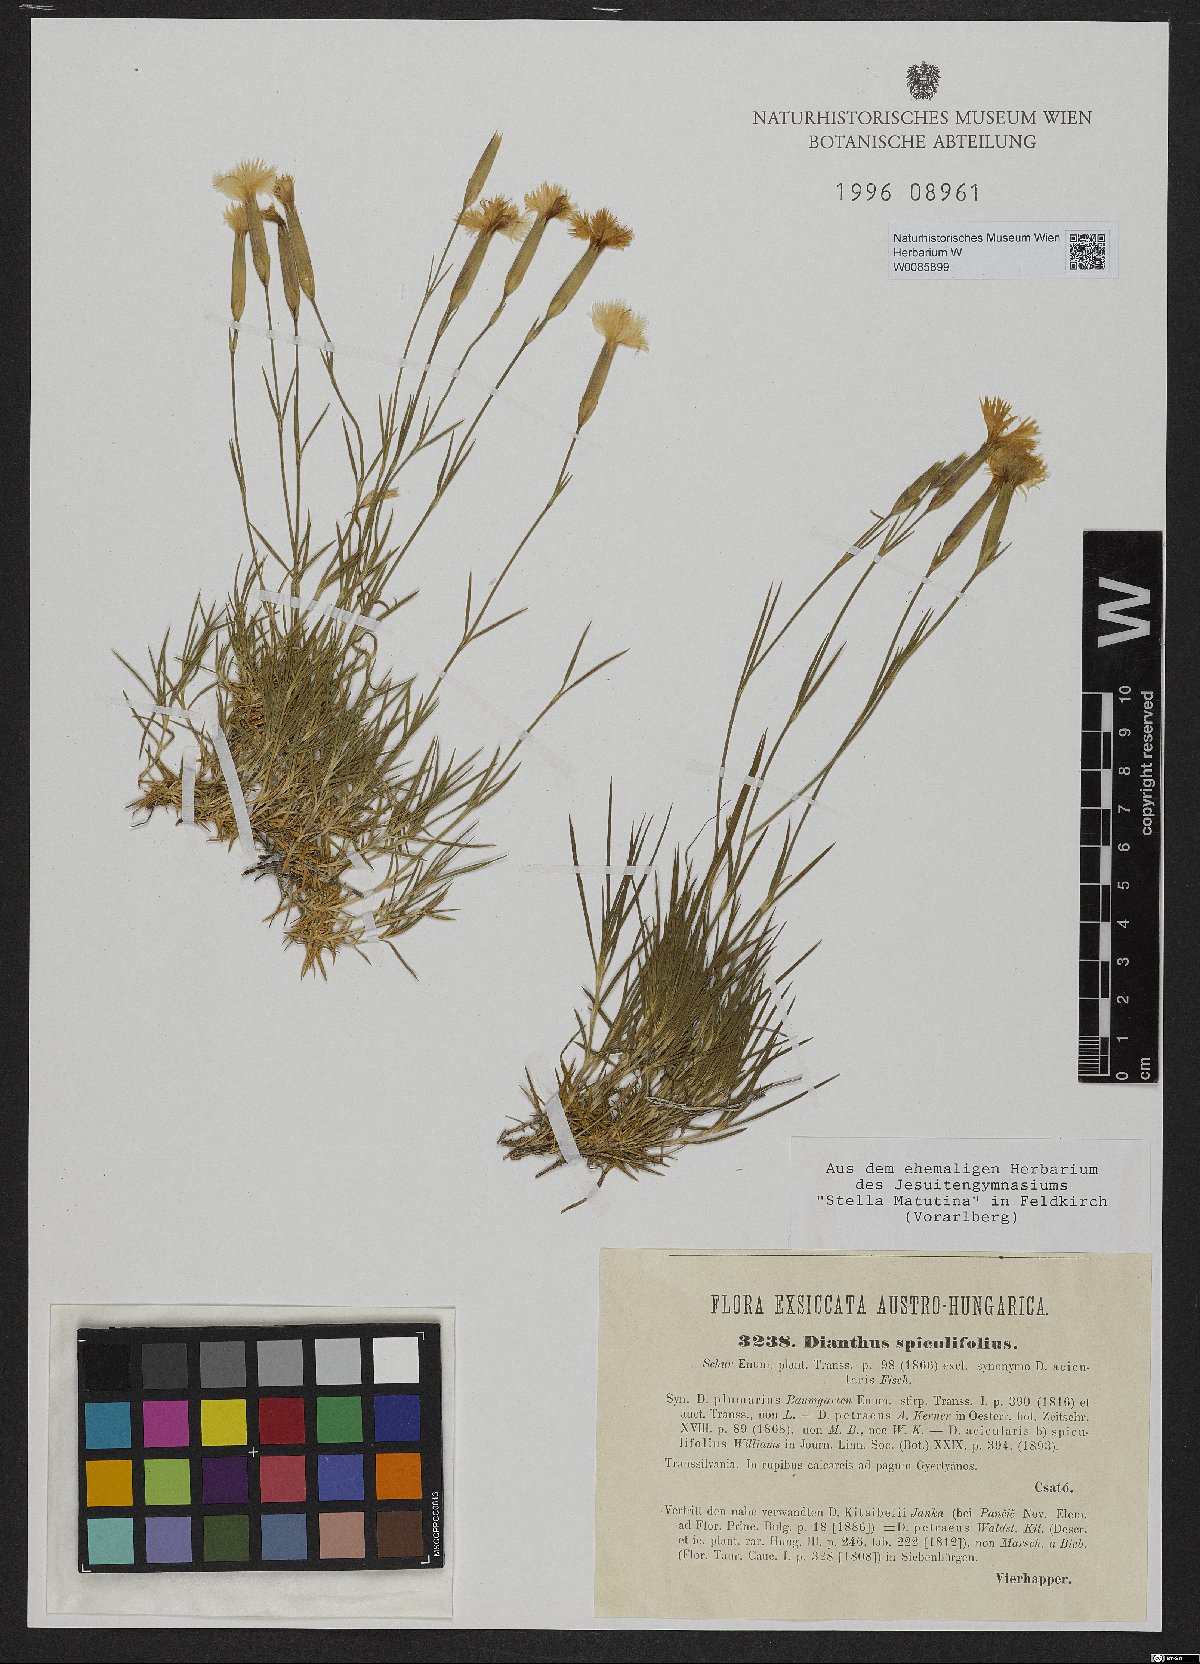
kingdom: Plantae
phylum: Tracheophyta
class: Magnoliopsida
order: Caryophyllales
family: Caryophyllaceae
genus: Dianthus
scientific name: Dianthus spiculifolius
